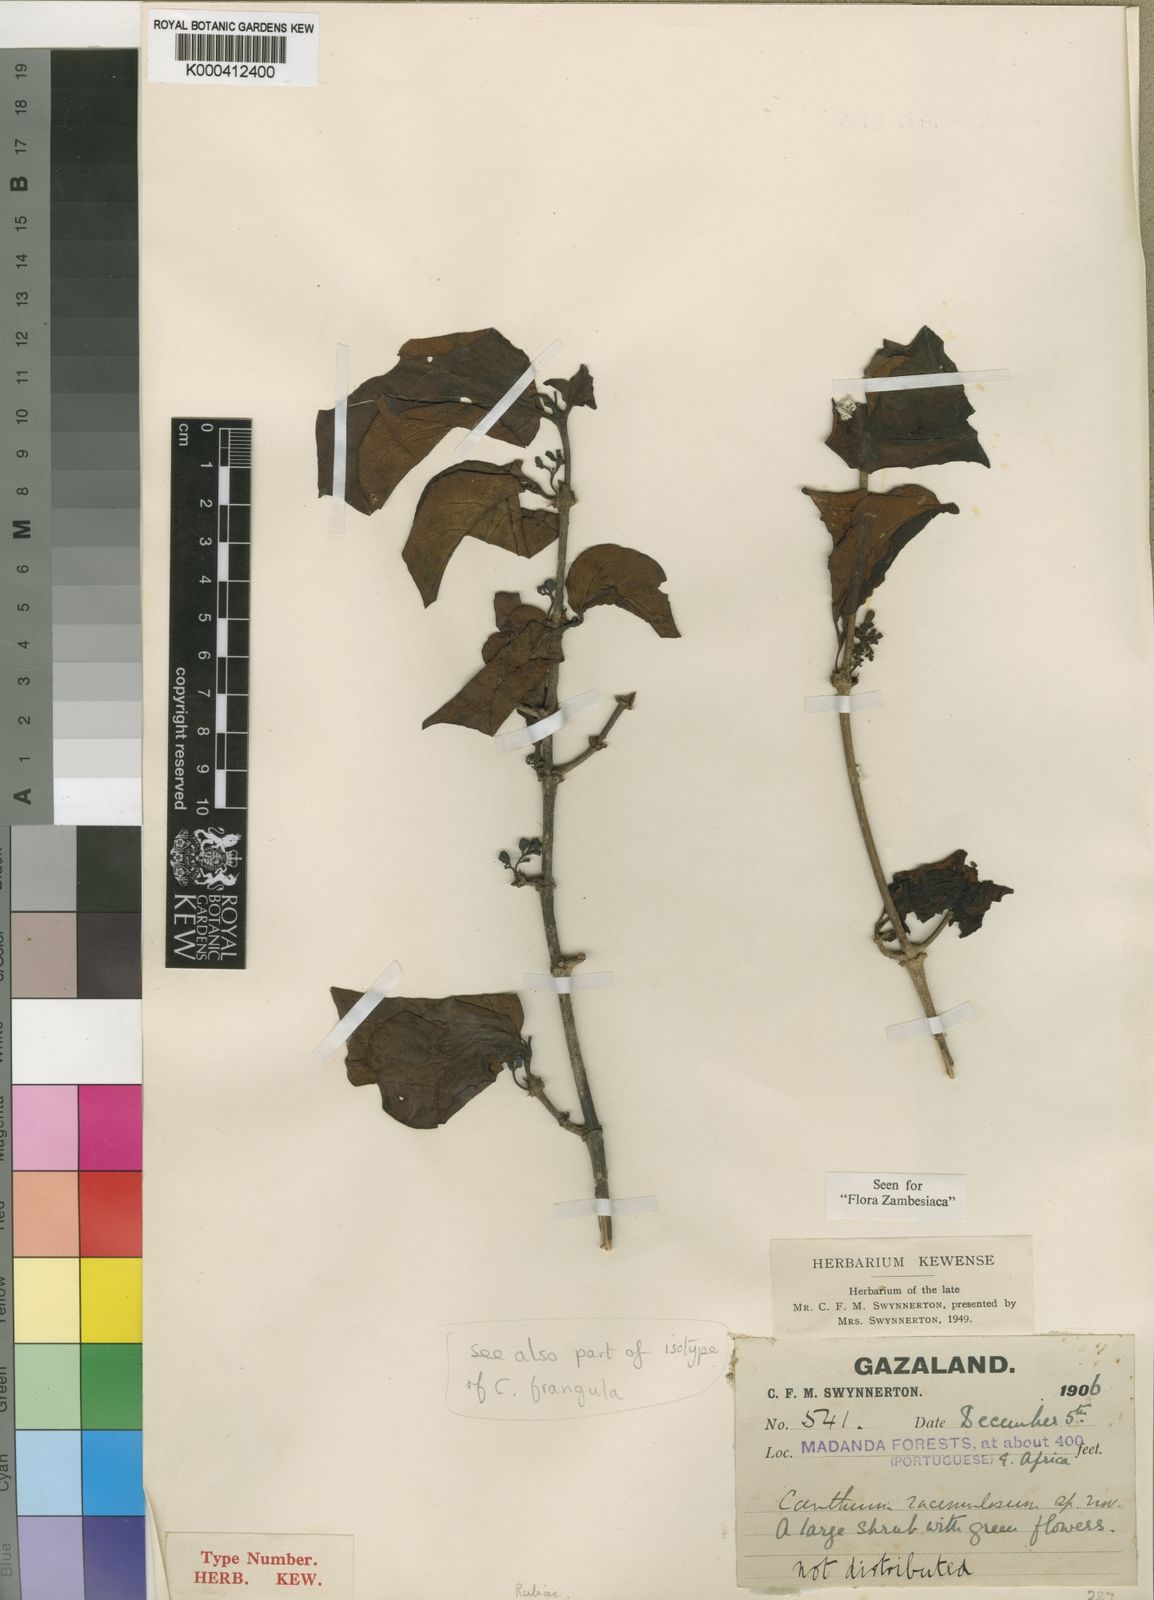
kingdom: Plantae
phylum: Tracheophyta
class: Magnoliopsida
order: Gentianales
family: Rubiaceae
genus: Afrocanthium
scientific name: Afrocanthium racemulosum
